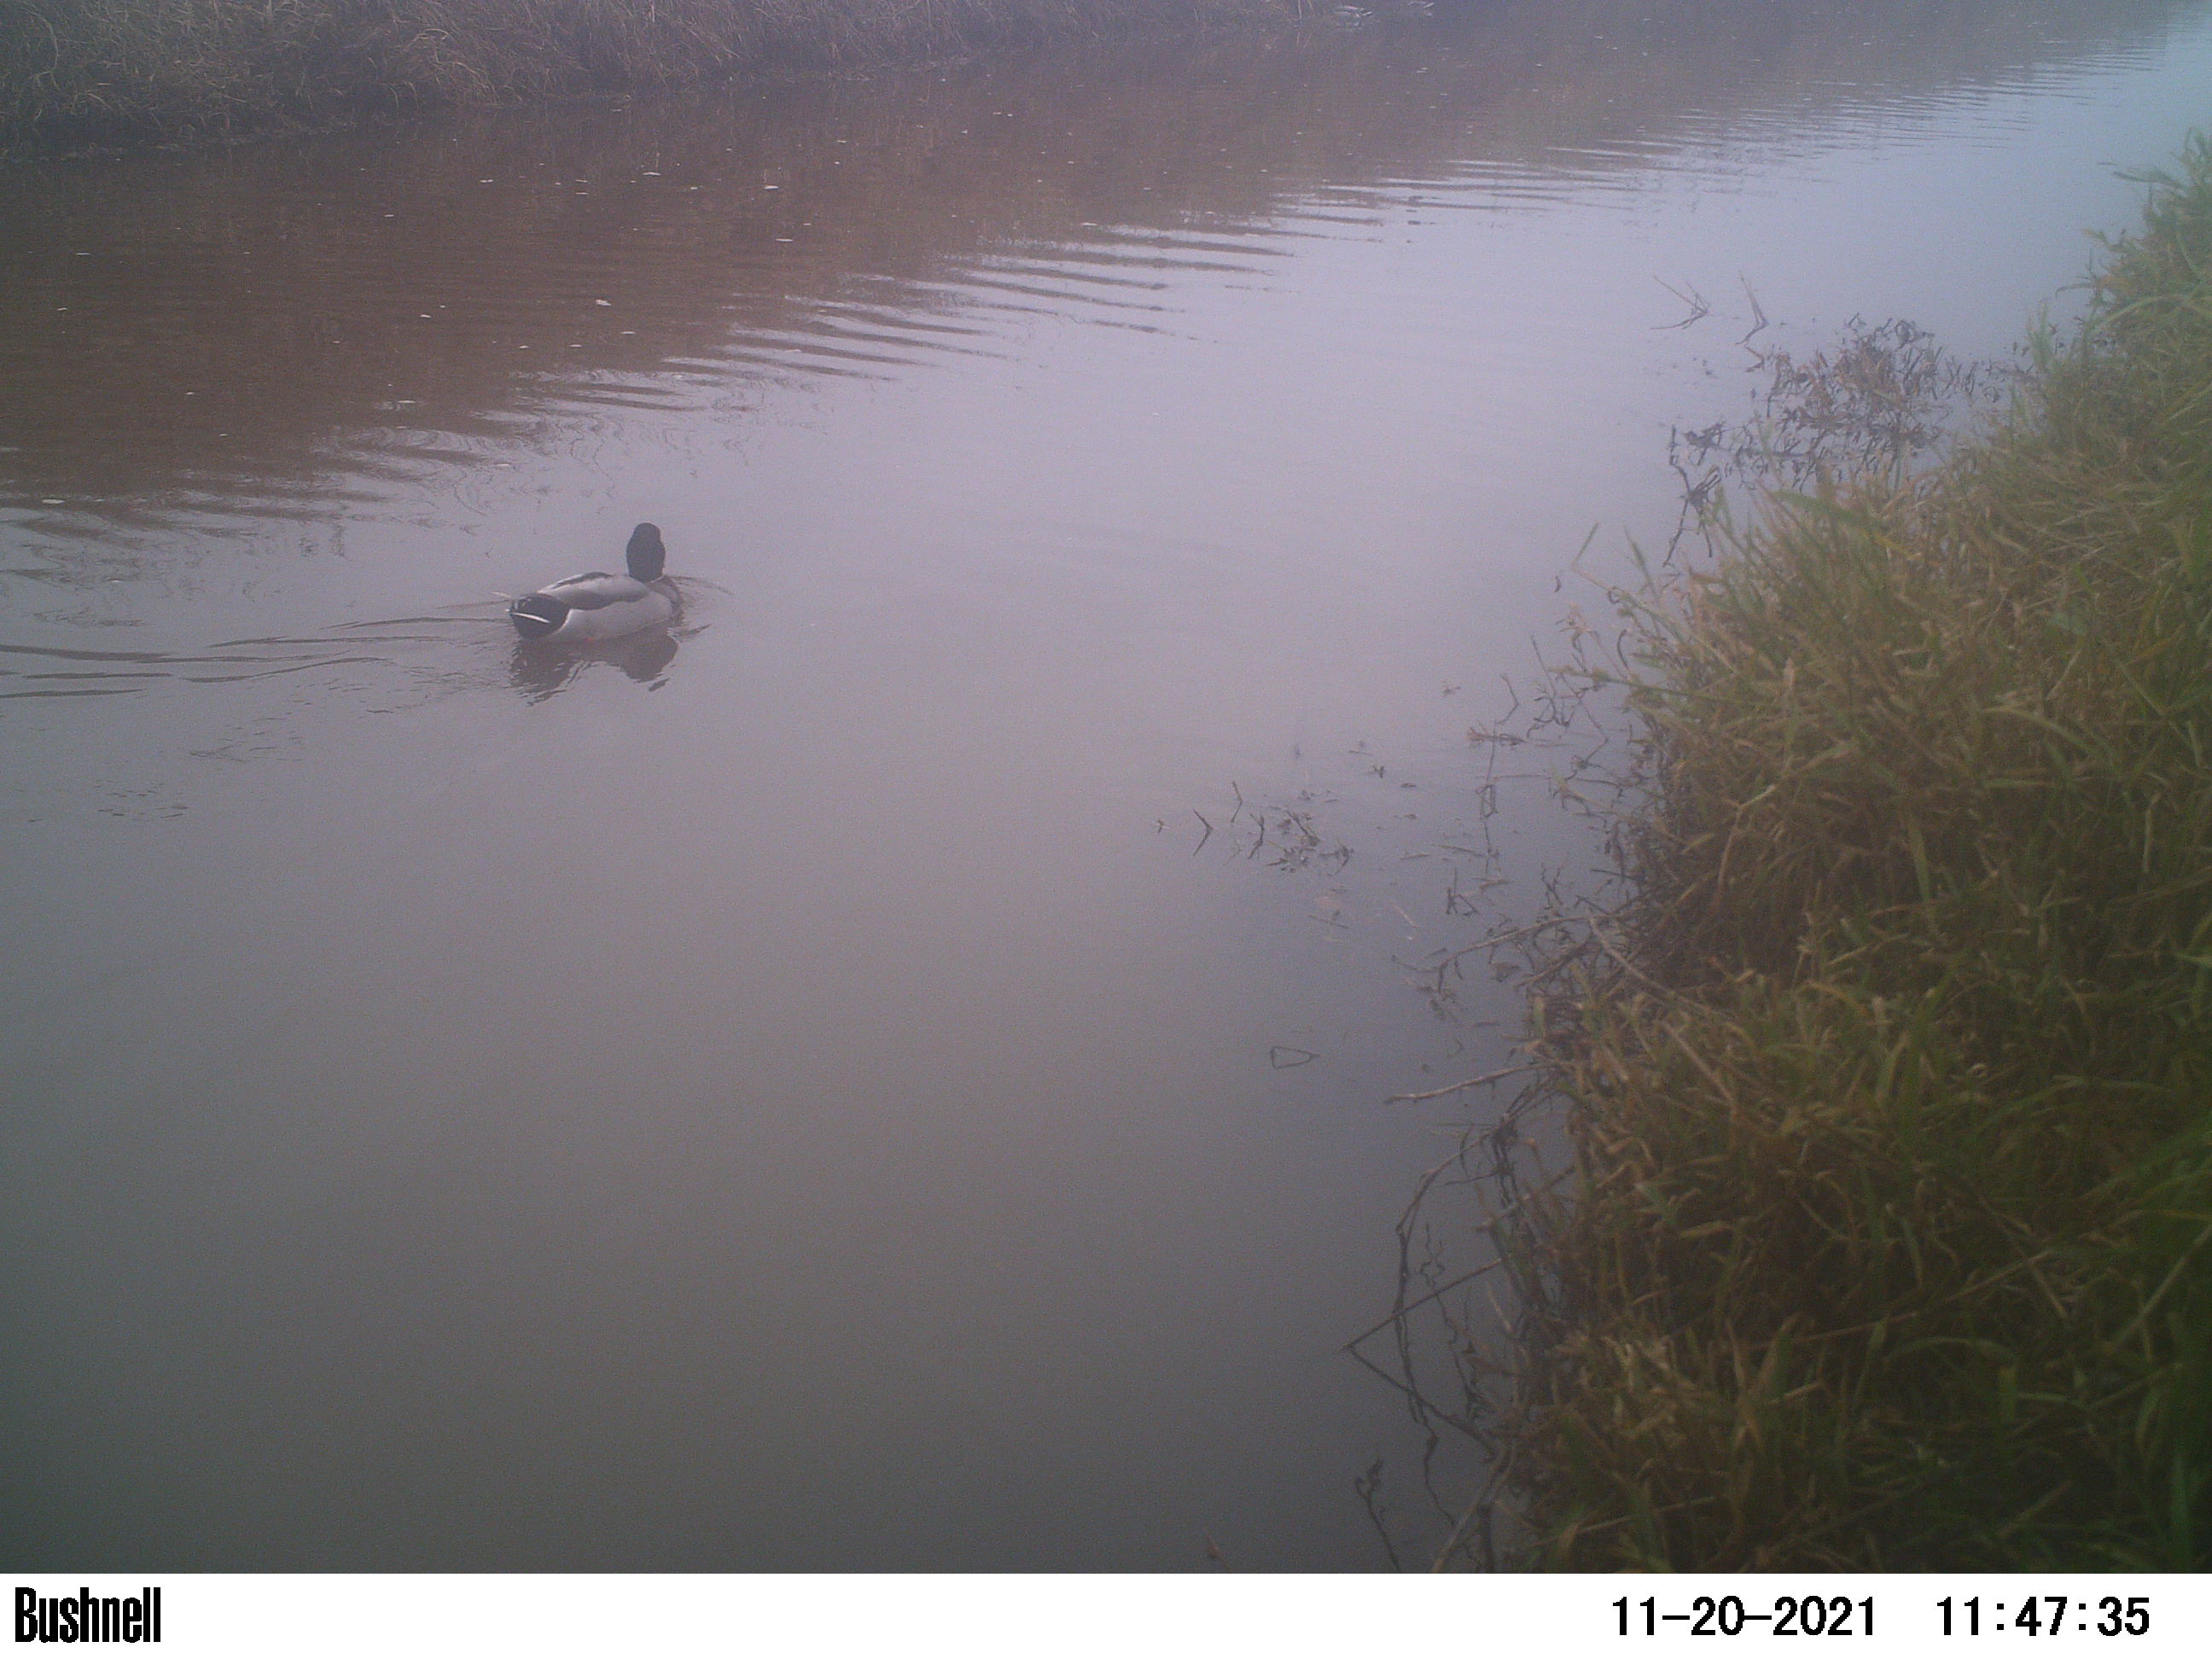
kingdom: Animalia
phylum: Chordata
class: Aves
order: Anseriformes
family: Anatidae
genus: Anas
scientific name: Anas
